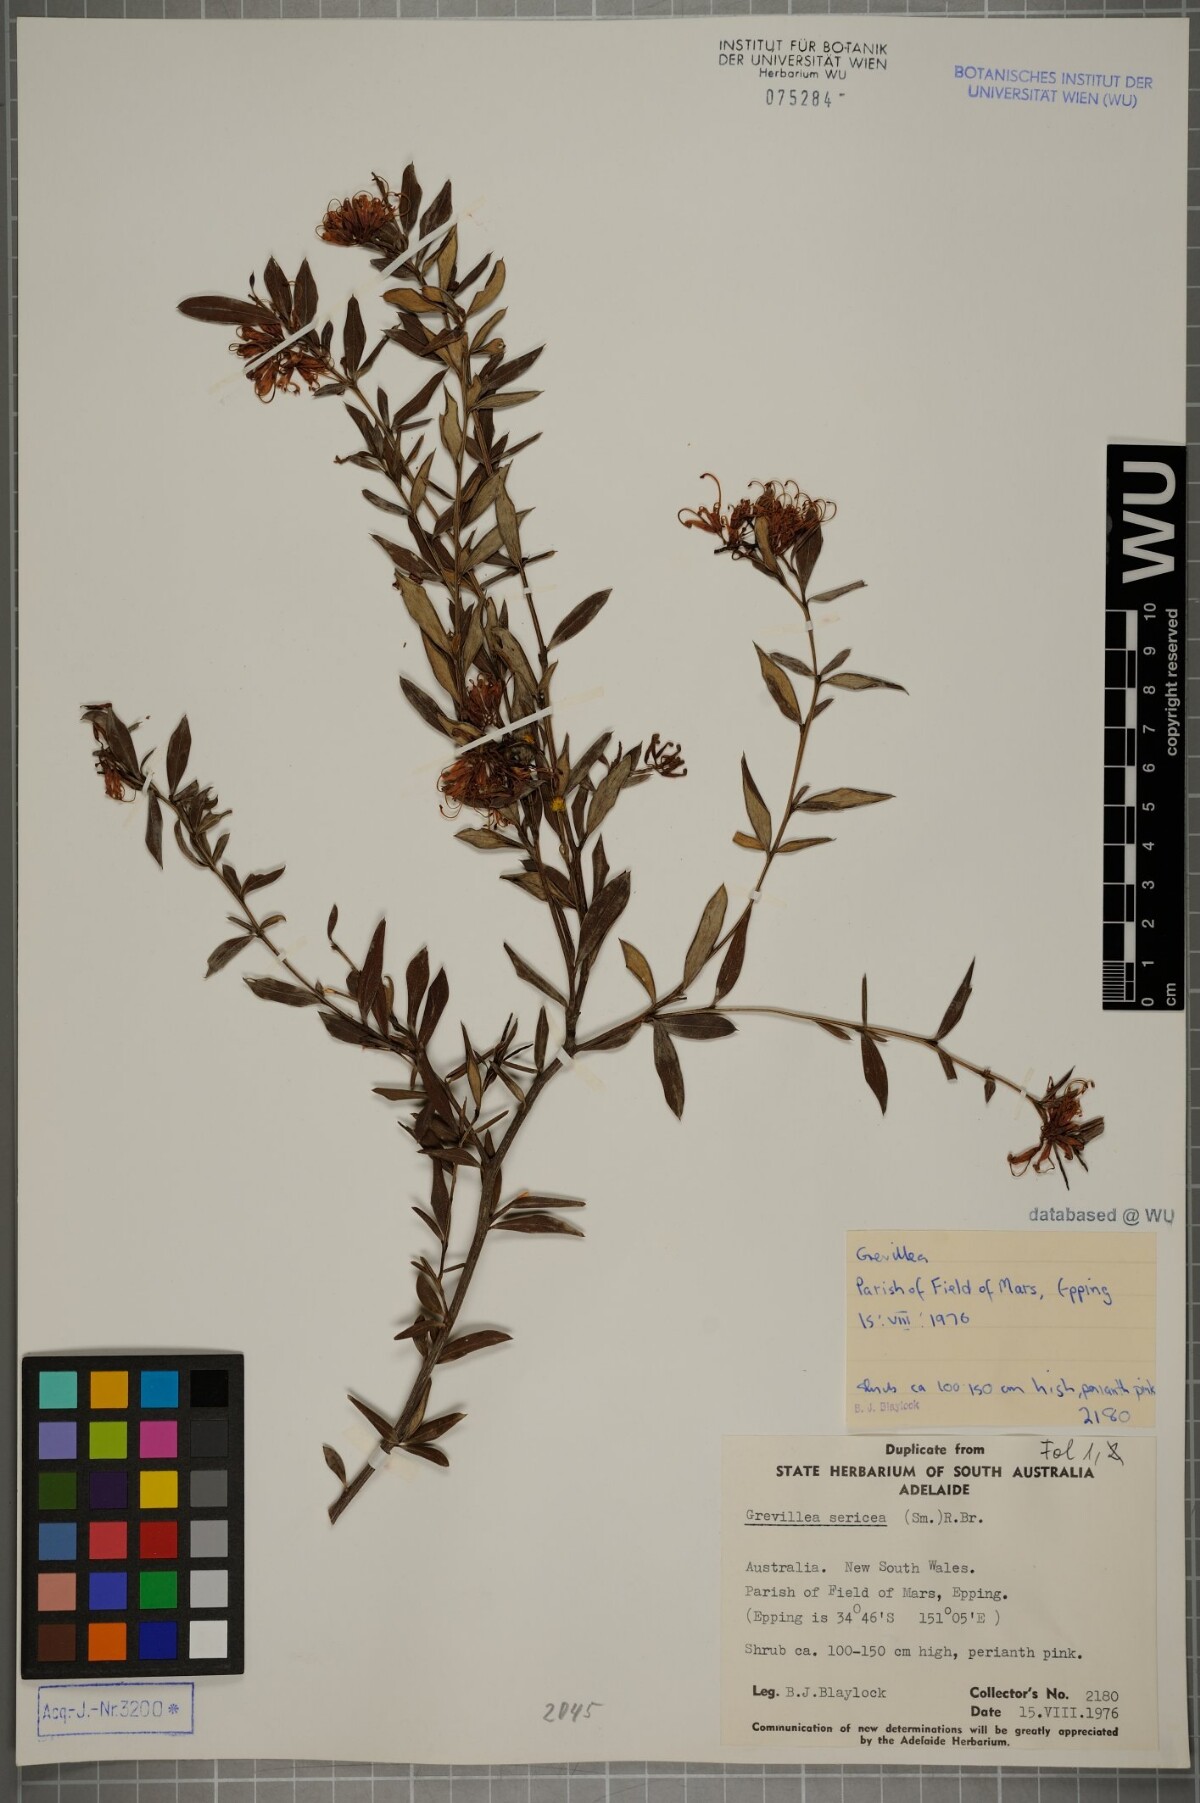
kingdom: Plantae
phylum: Tracheophyta
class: Magnoliopsida
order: Proteales
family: Proteaceae
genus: Grevillea
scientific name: Grevillea sericea
